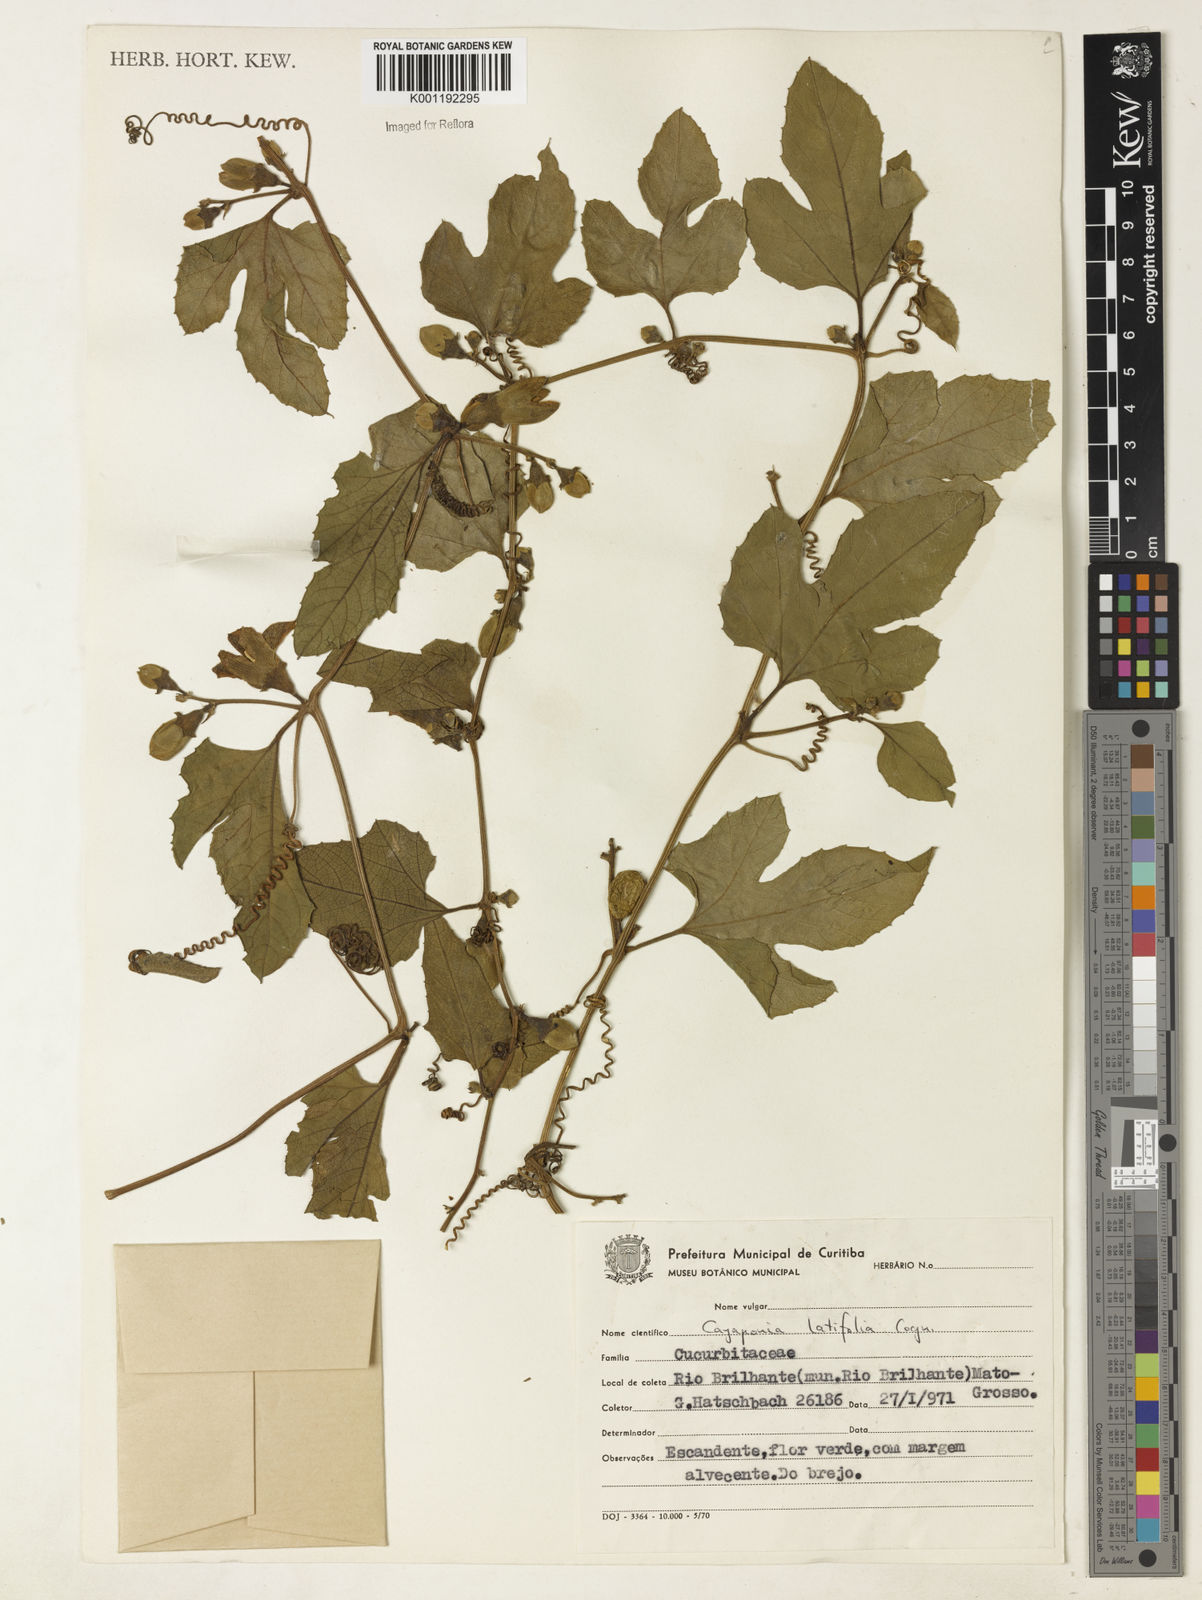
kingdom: Plantae
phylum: Tracheophyta
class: Magnoliopsida
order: Cucurbitales
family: Cucurbitaceae
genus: Cayaponia
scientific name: Cayaponia
